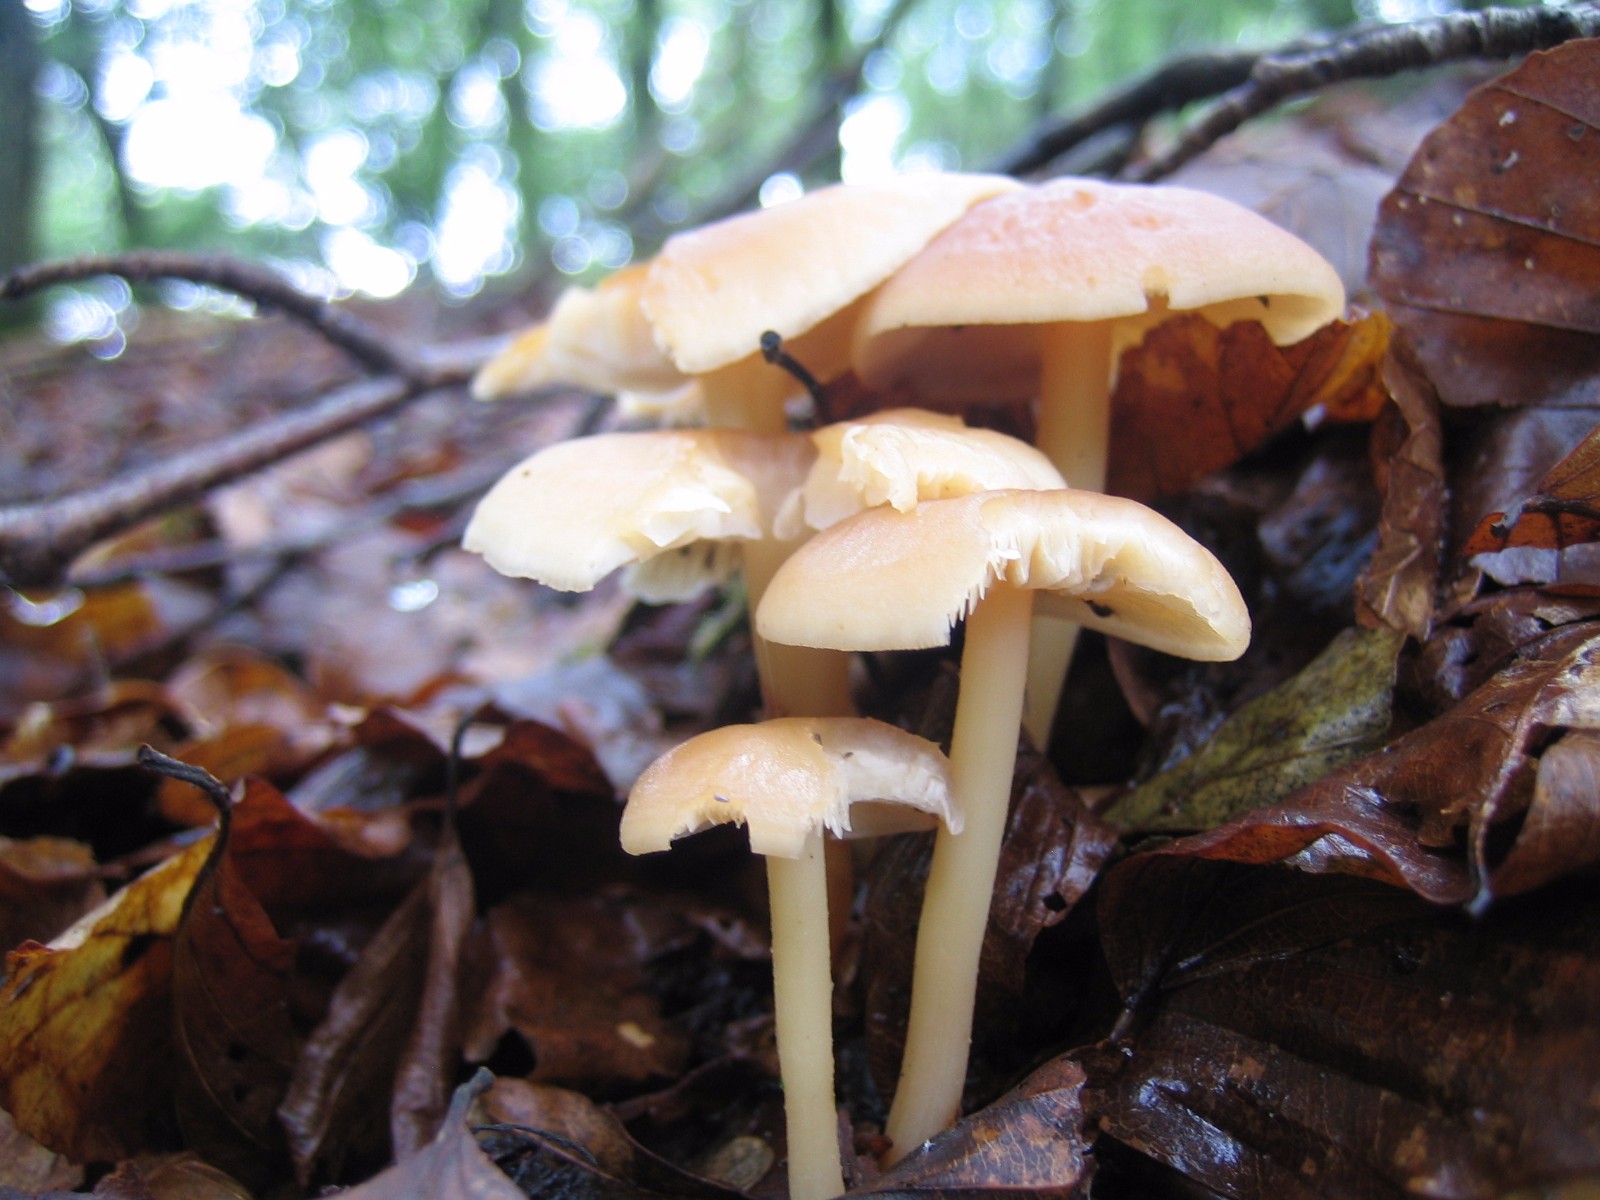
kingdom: Fungi
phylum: Basidiomycota
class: Agaricomycetes
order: Agaricales
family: Omphalotaceae
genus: Gymnopus
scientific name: Gymnopus dryophilus
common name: løv-fladhat
